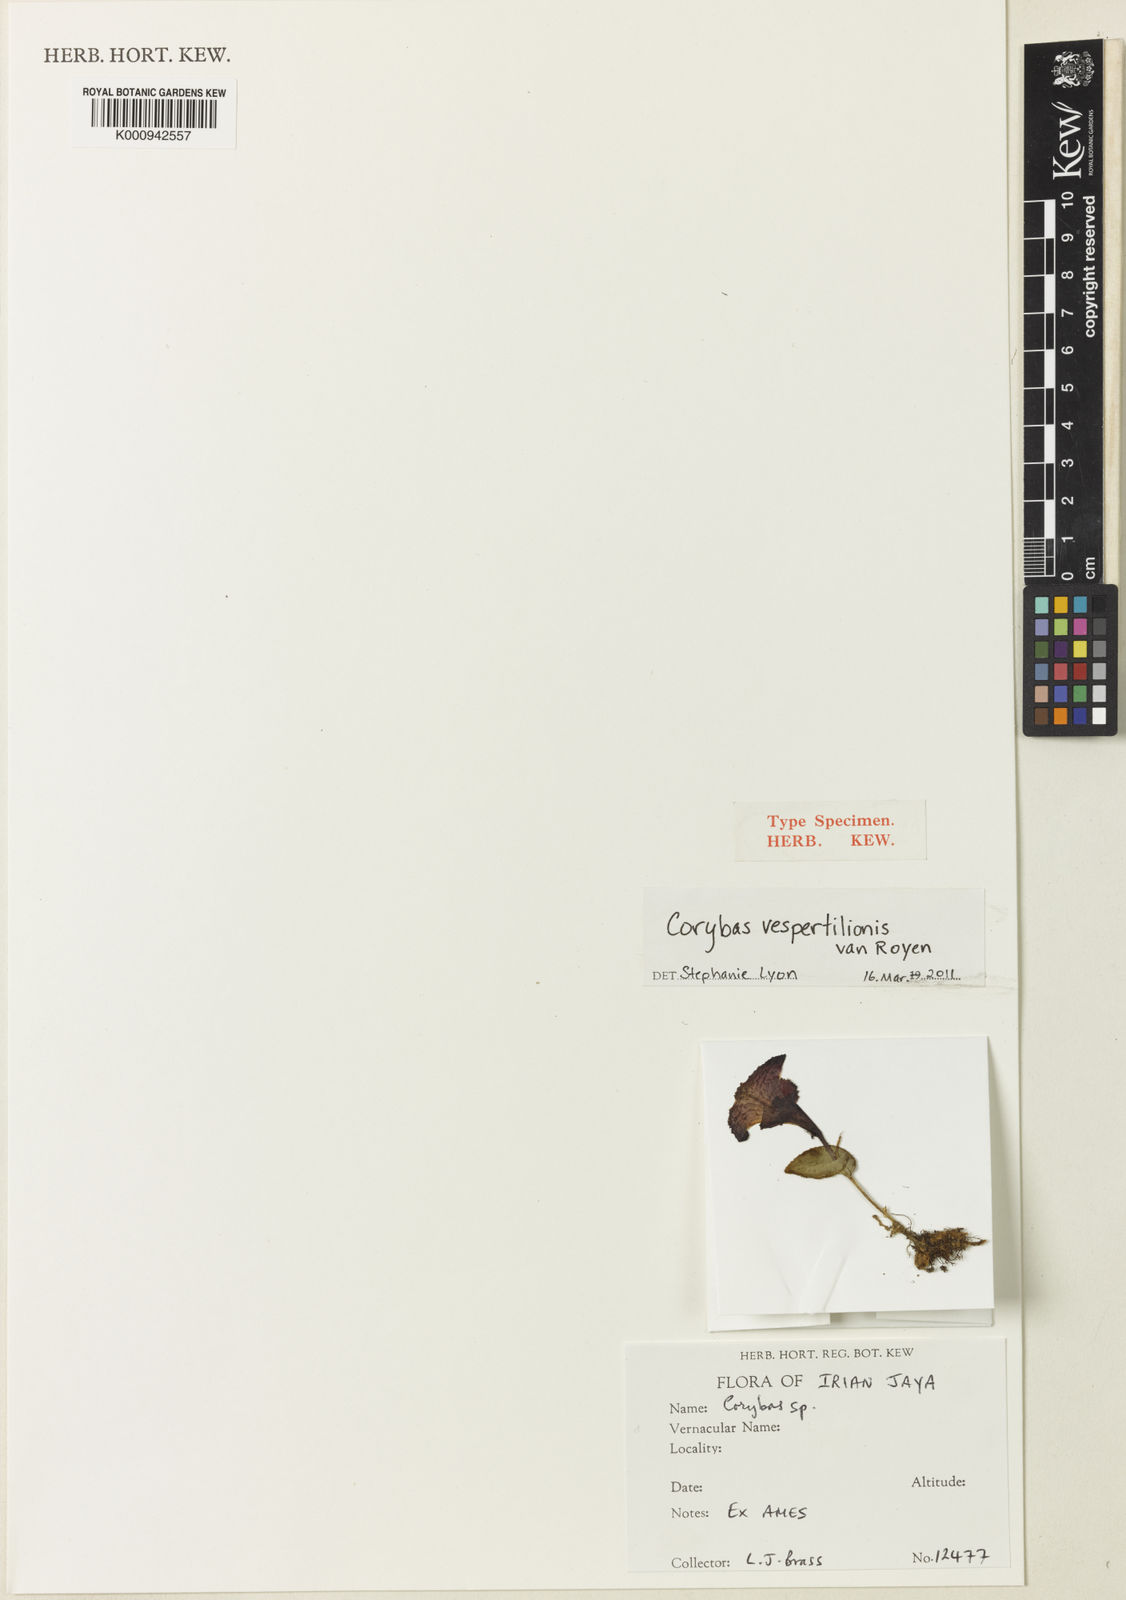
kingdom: Plantae
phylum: Tracheophyta
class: Liliopsida
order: Asparagales
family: Orchidaceae
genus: Corybas
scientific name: Corybas vespertilionis
